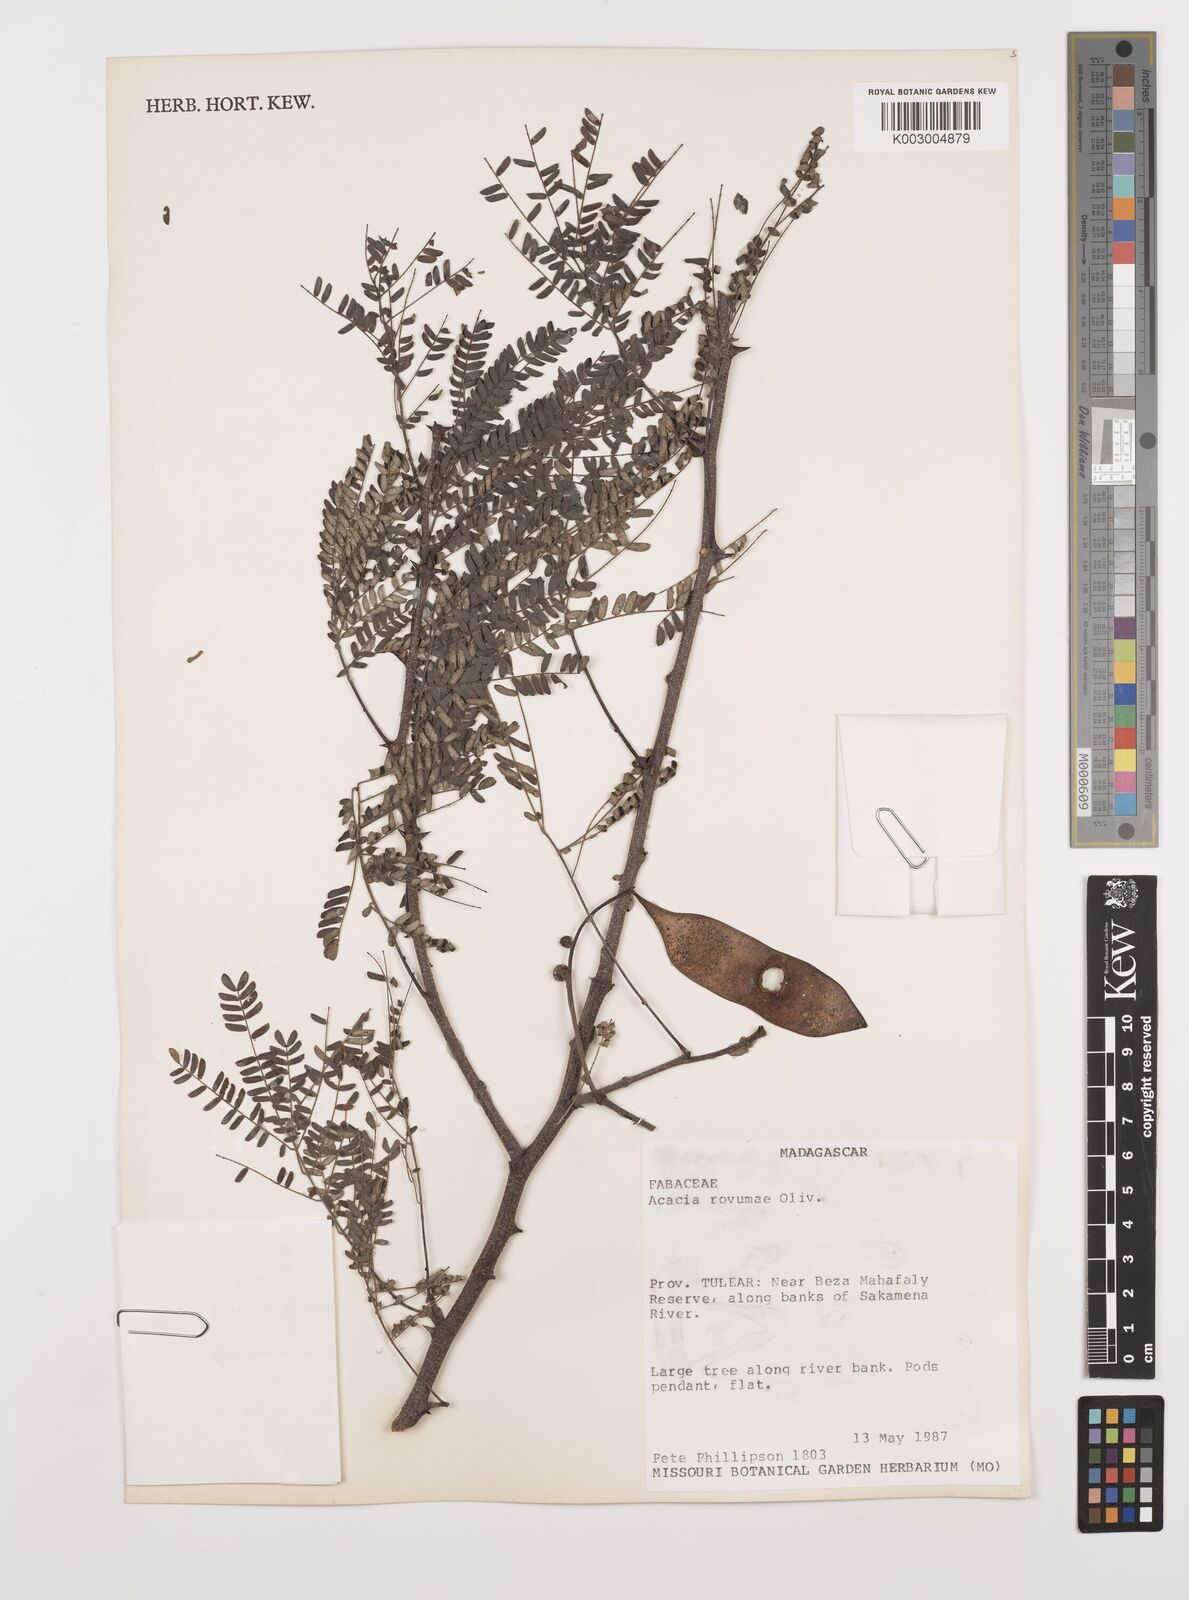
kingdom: Plantae
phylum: Tracheophyta
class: Magnoliopsida
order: Fabales
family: Fabaceae
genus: Senegalia
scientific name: Senegalia rovumae
